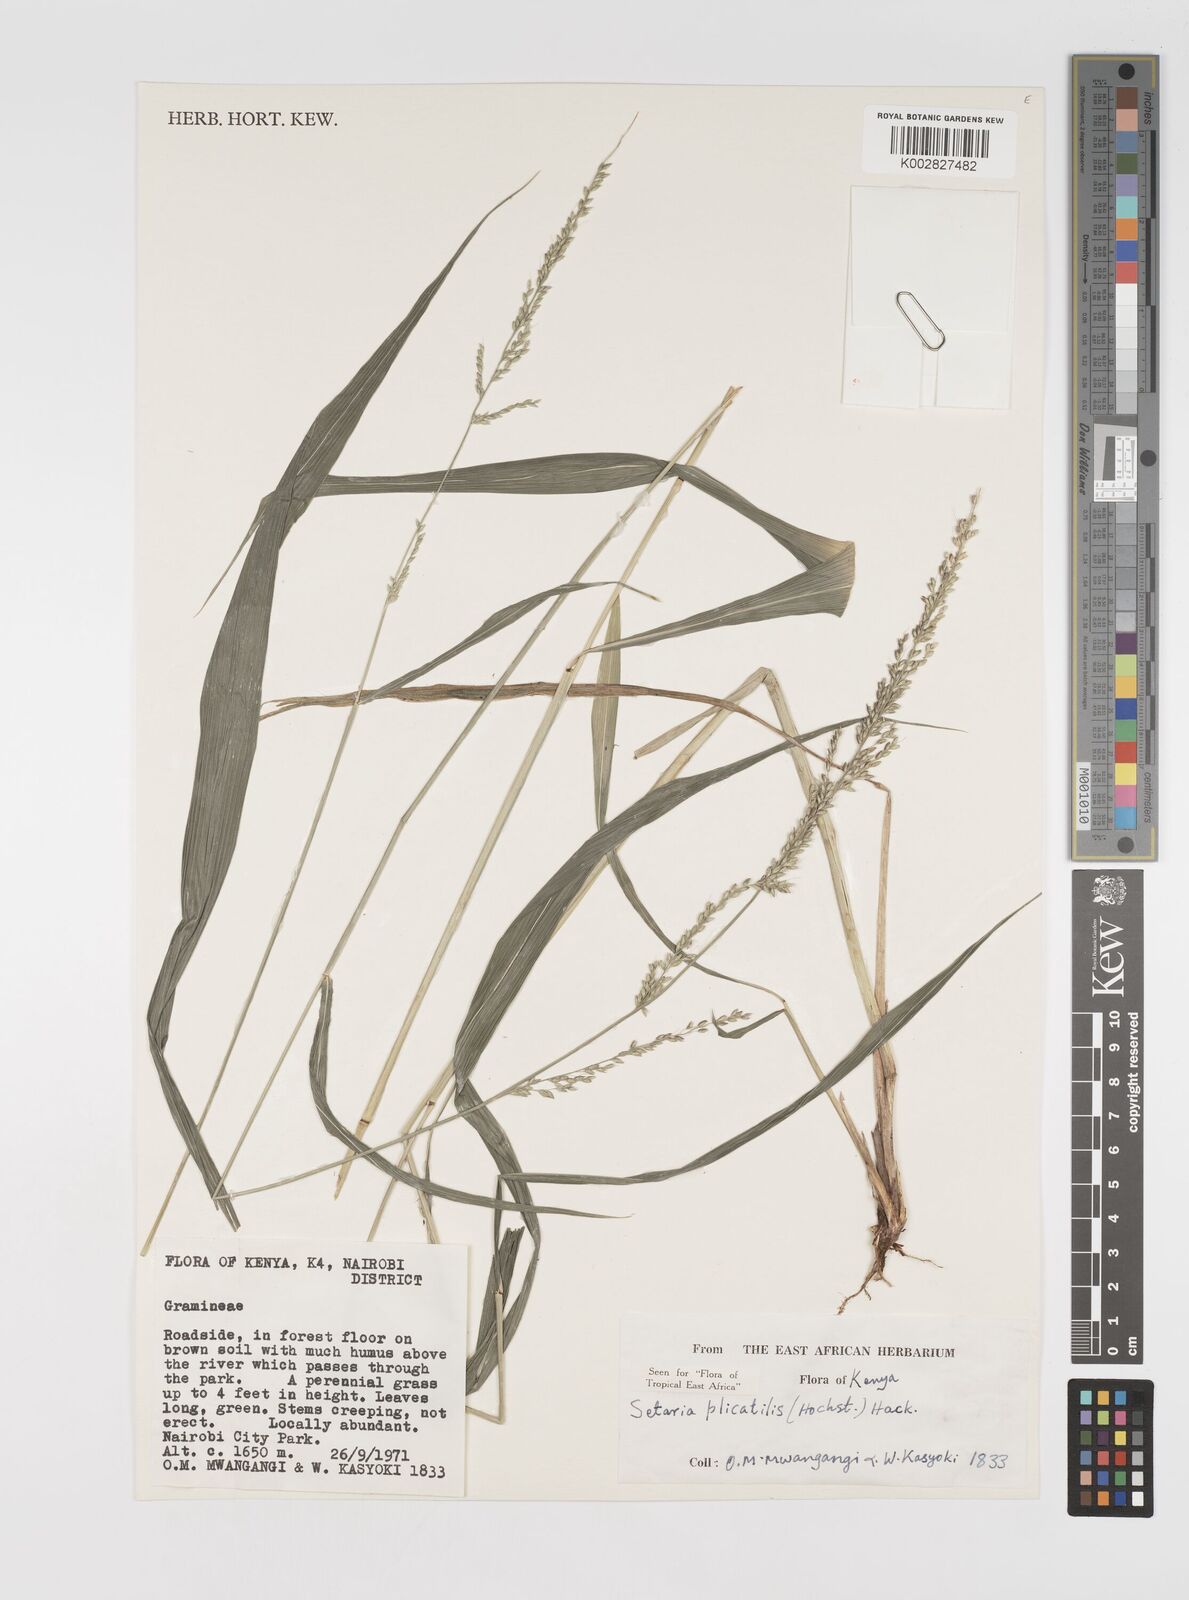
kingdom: Plantae
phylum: Tracheophyta
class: Liliopsida
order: Poales
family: Poaceae
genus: Setaria
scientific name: Setaria megaphylla
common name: Bigleaf bristlegrass
